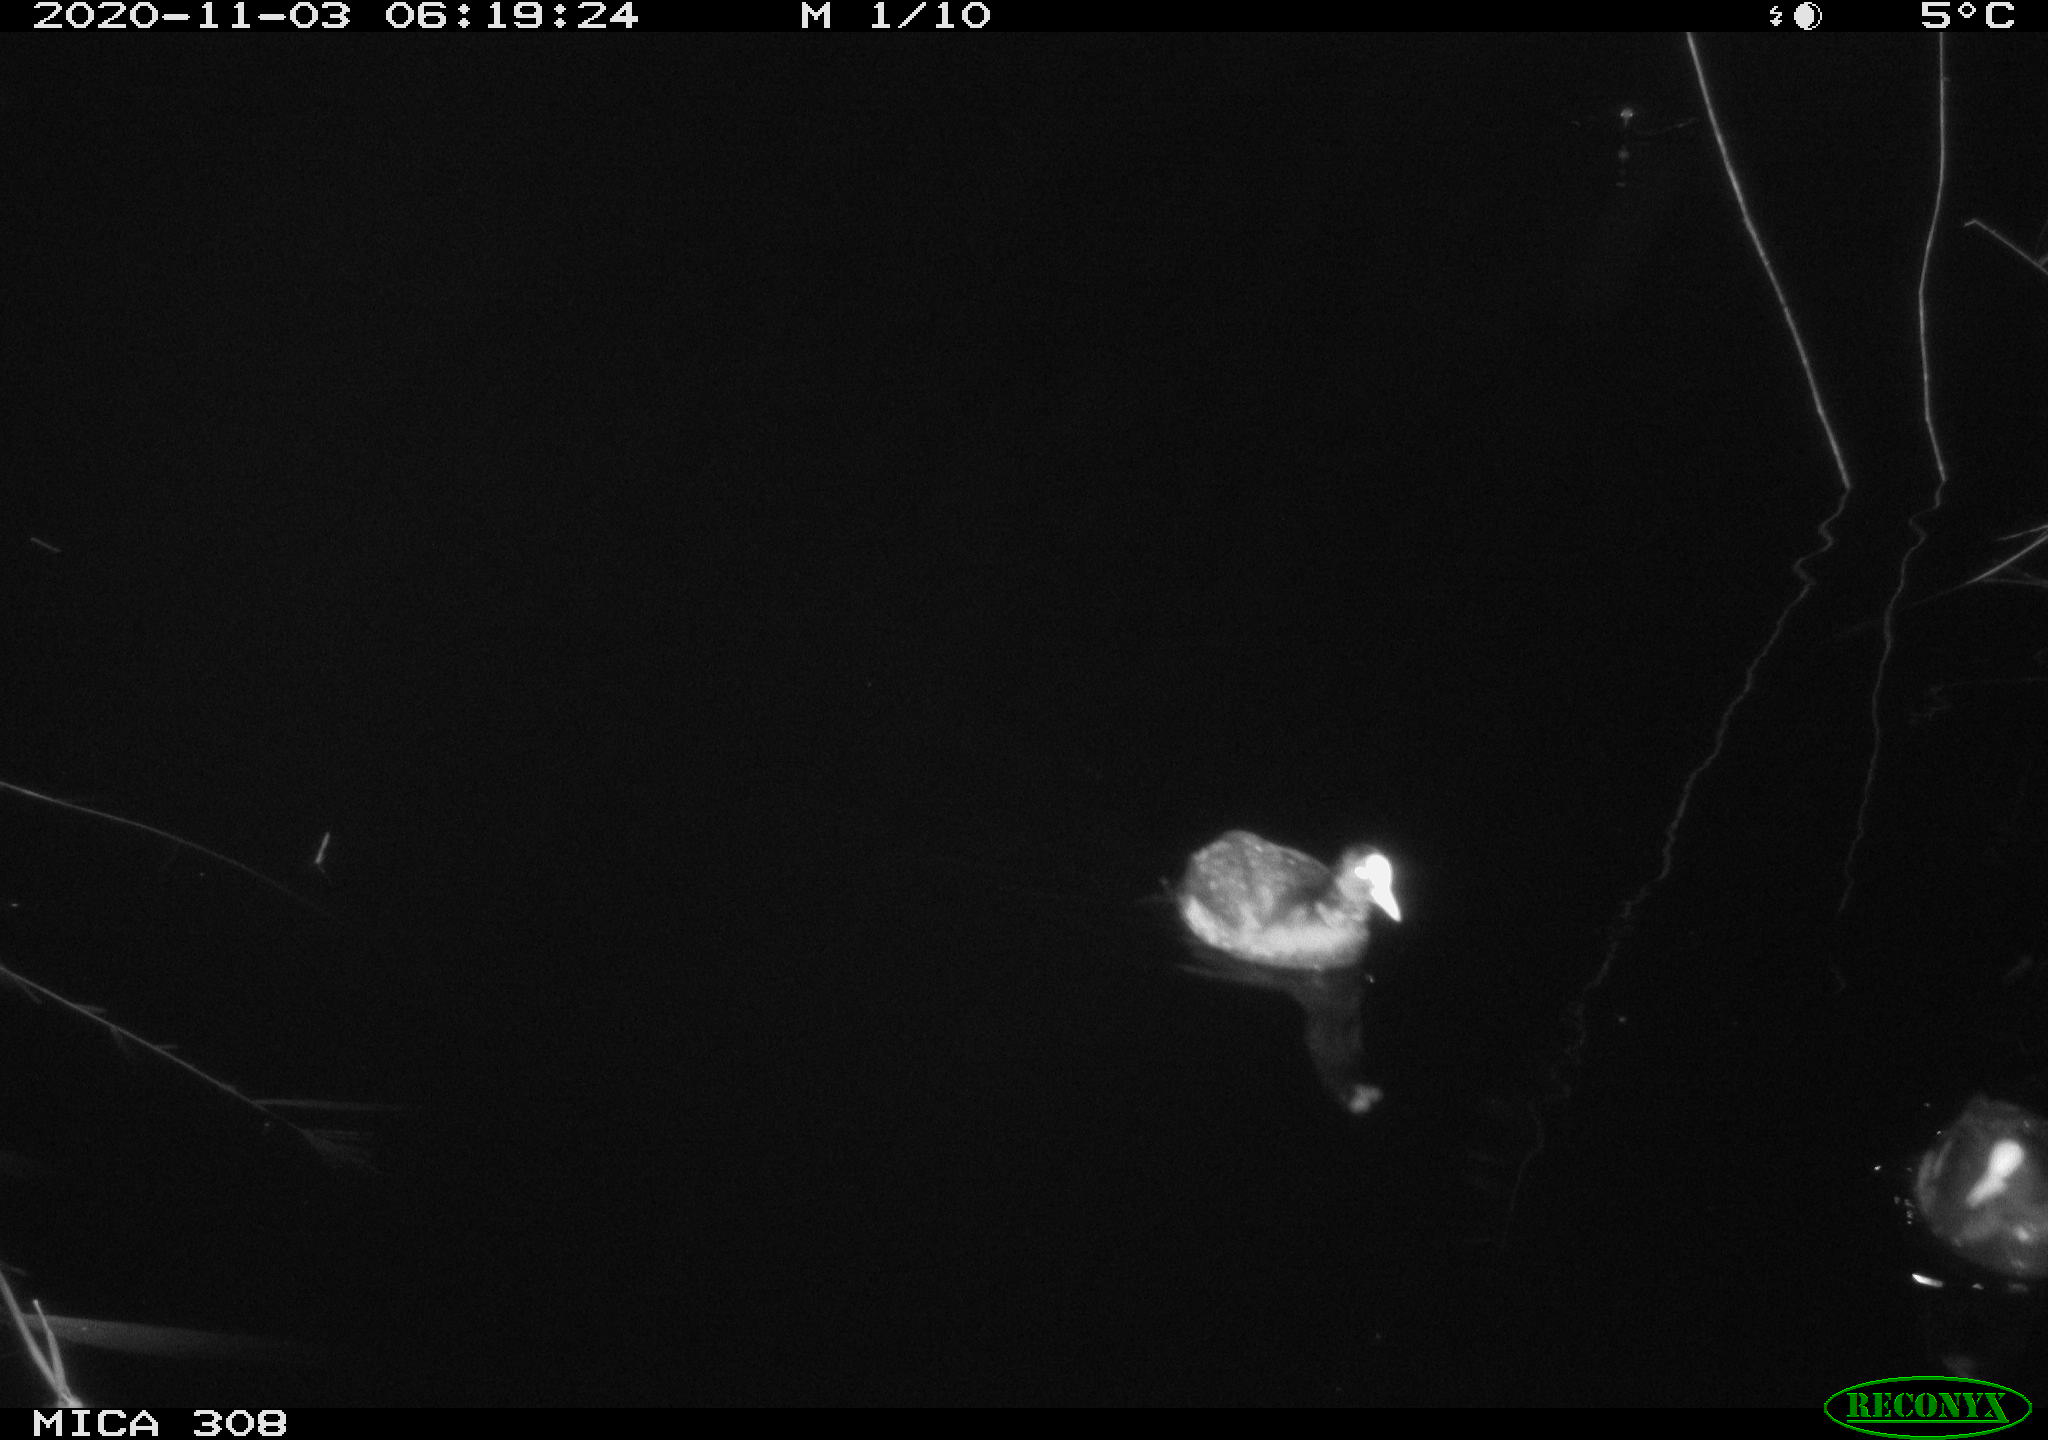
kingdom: Animalia
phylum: Chordata
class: Aves
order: Gruiformes
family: Rallidae
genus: Fulica
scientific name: Fulica atra
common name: Eurasian coot
